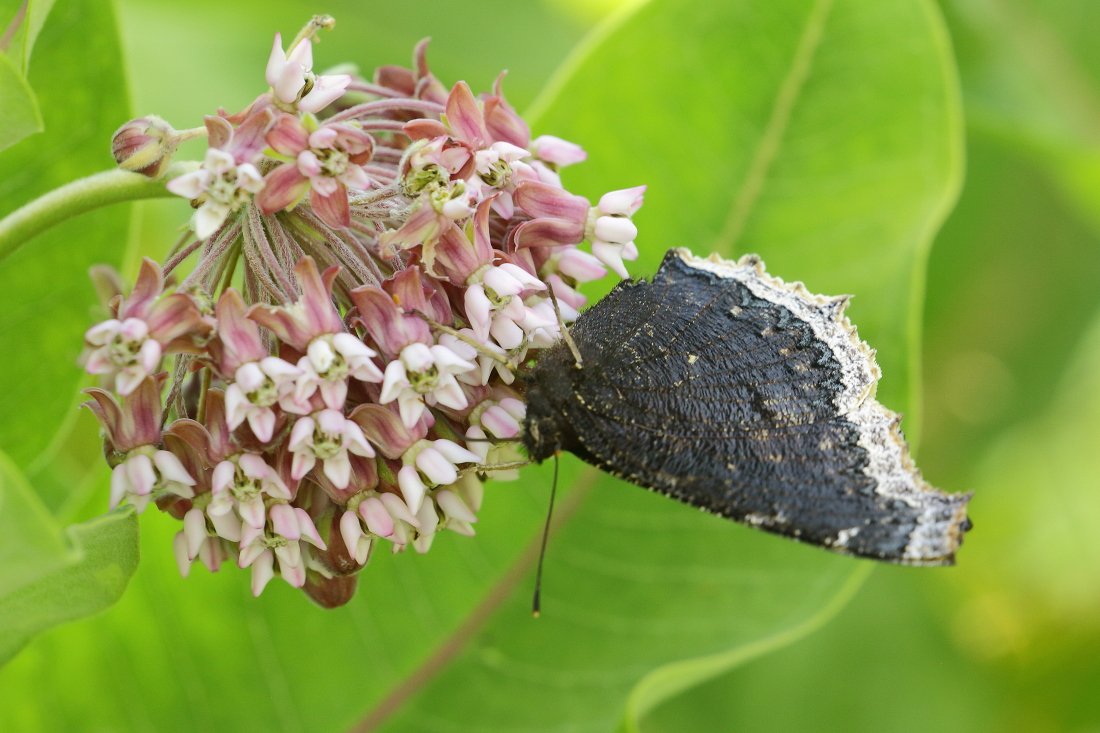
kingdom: Animalia
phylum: Arthropoda
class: Insecta
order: Lepidoptera
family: Nymphalidae
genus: Nymphalis
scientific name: Nymphalis antiopa
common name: Mourning Cloak
